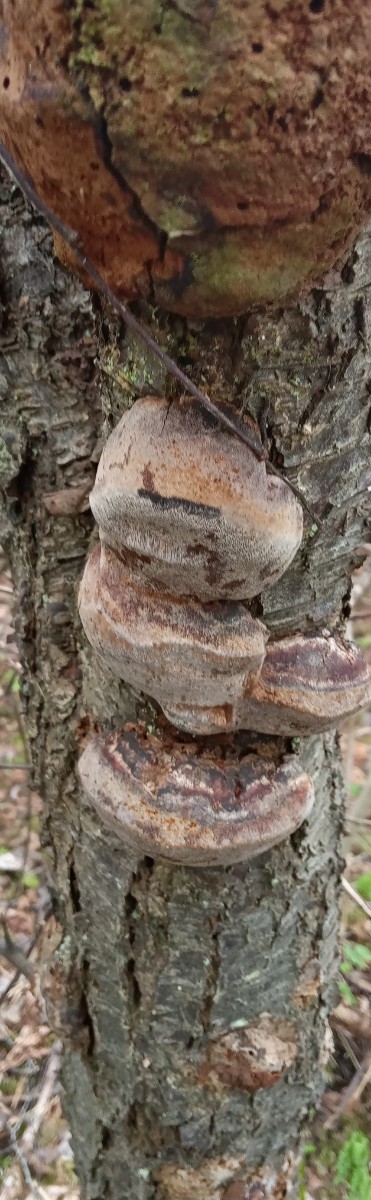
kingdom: Fungi
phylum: Basidiomycota
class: Agaricomycetes
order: Hymenochaetales
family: Hymenochaetaceae
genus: Phellinus
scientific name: Phellinus pomaceus
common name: blomme-ildporesvamp
